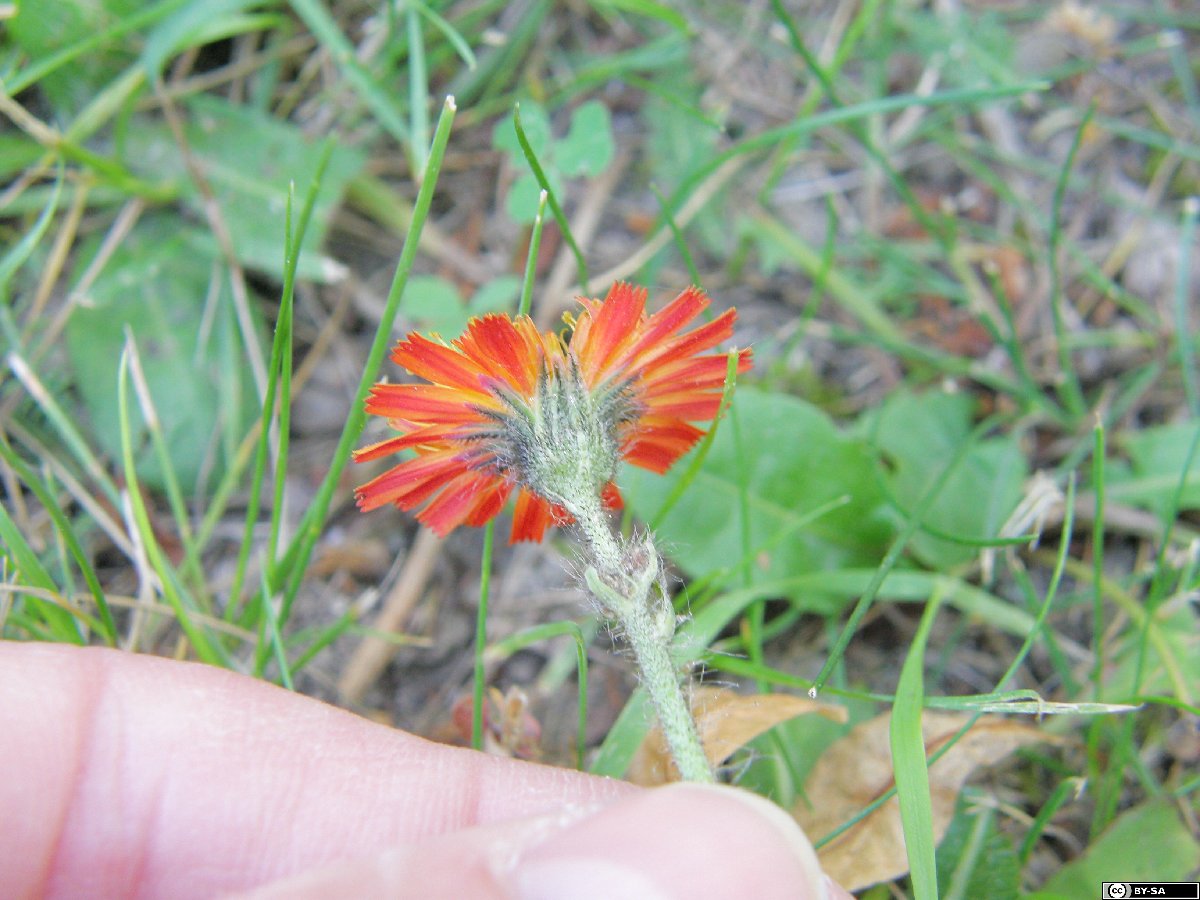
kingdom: Plantae
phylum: Tracheophyta
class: Magnoliopsida
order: Asterales
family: Asteraceae
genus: Pilosella
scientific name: Pilosella stoloniflora
